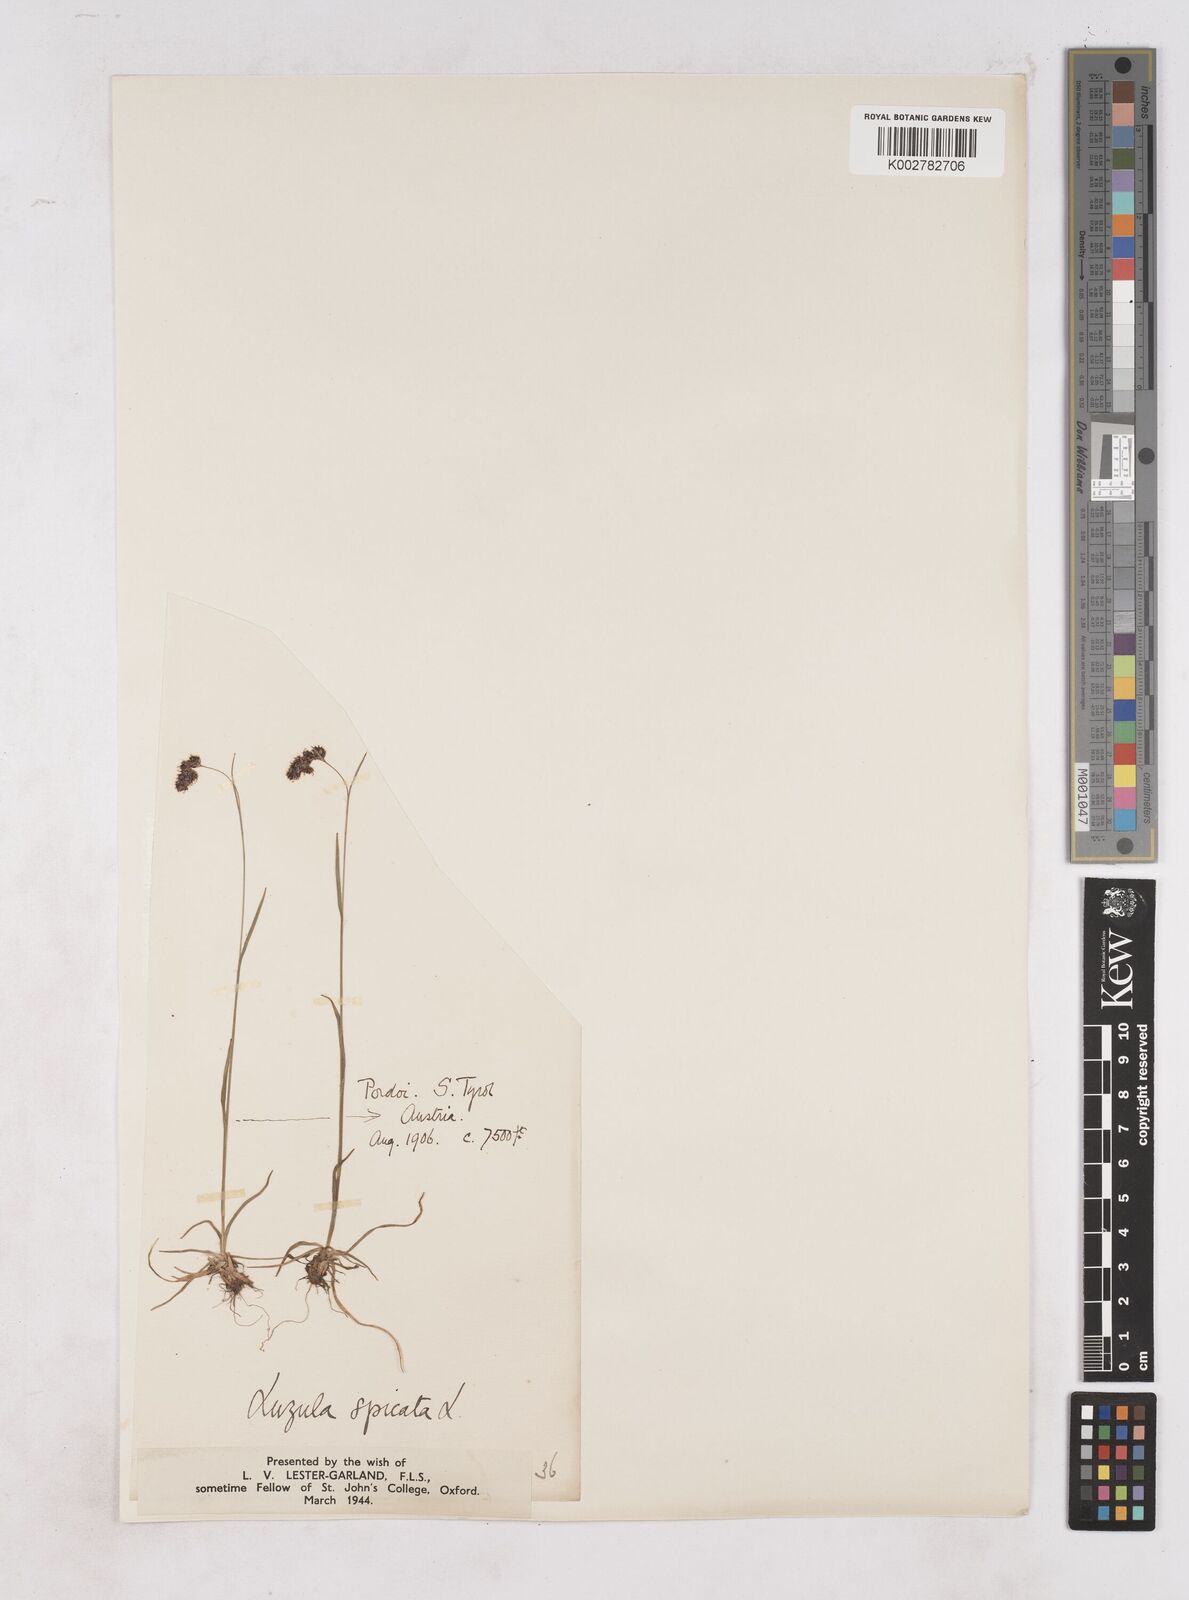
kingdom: Plantae
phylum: Tracheophyta
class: Liliopsida
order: Poales
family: Juncaceae
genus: Luzula
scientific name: Luzula spicata
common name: Spiked wood-rush
